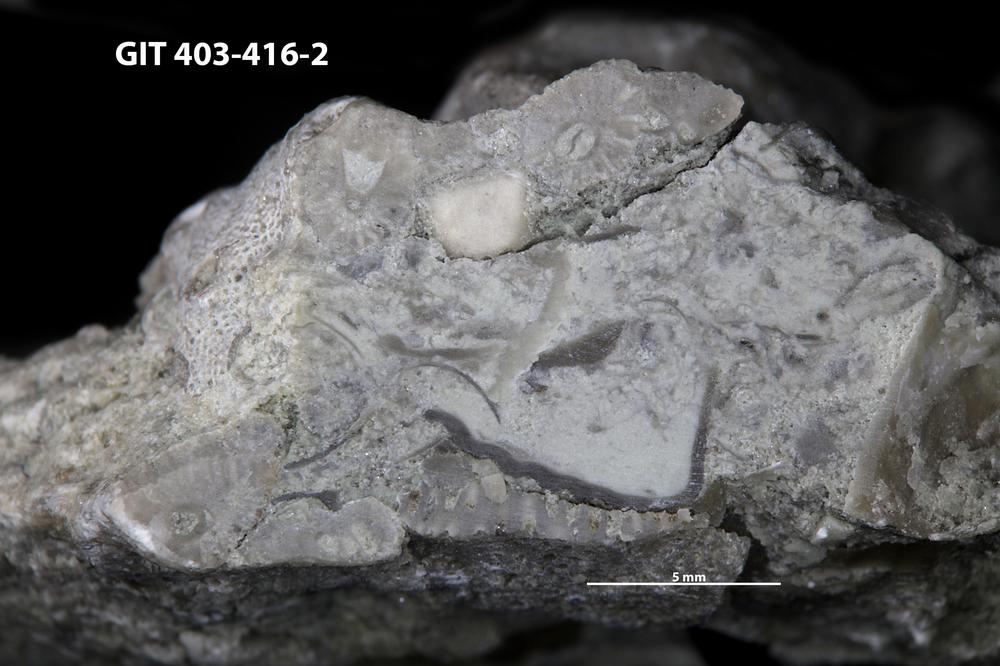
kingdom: Animalia
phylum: Cnidaria
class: Hydrozoa
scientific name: Hydrozoa
